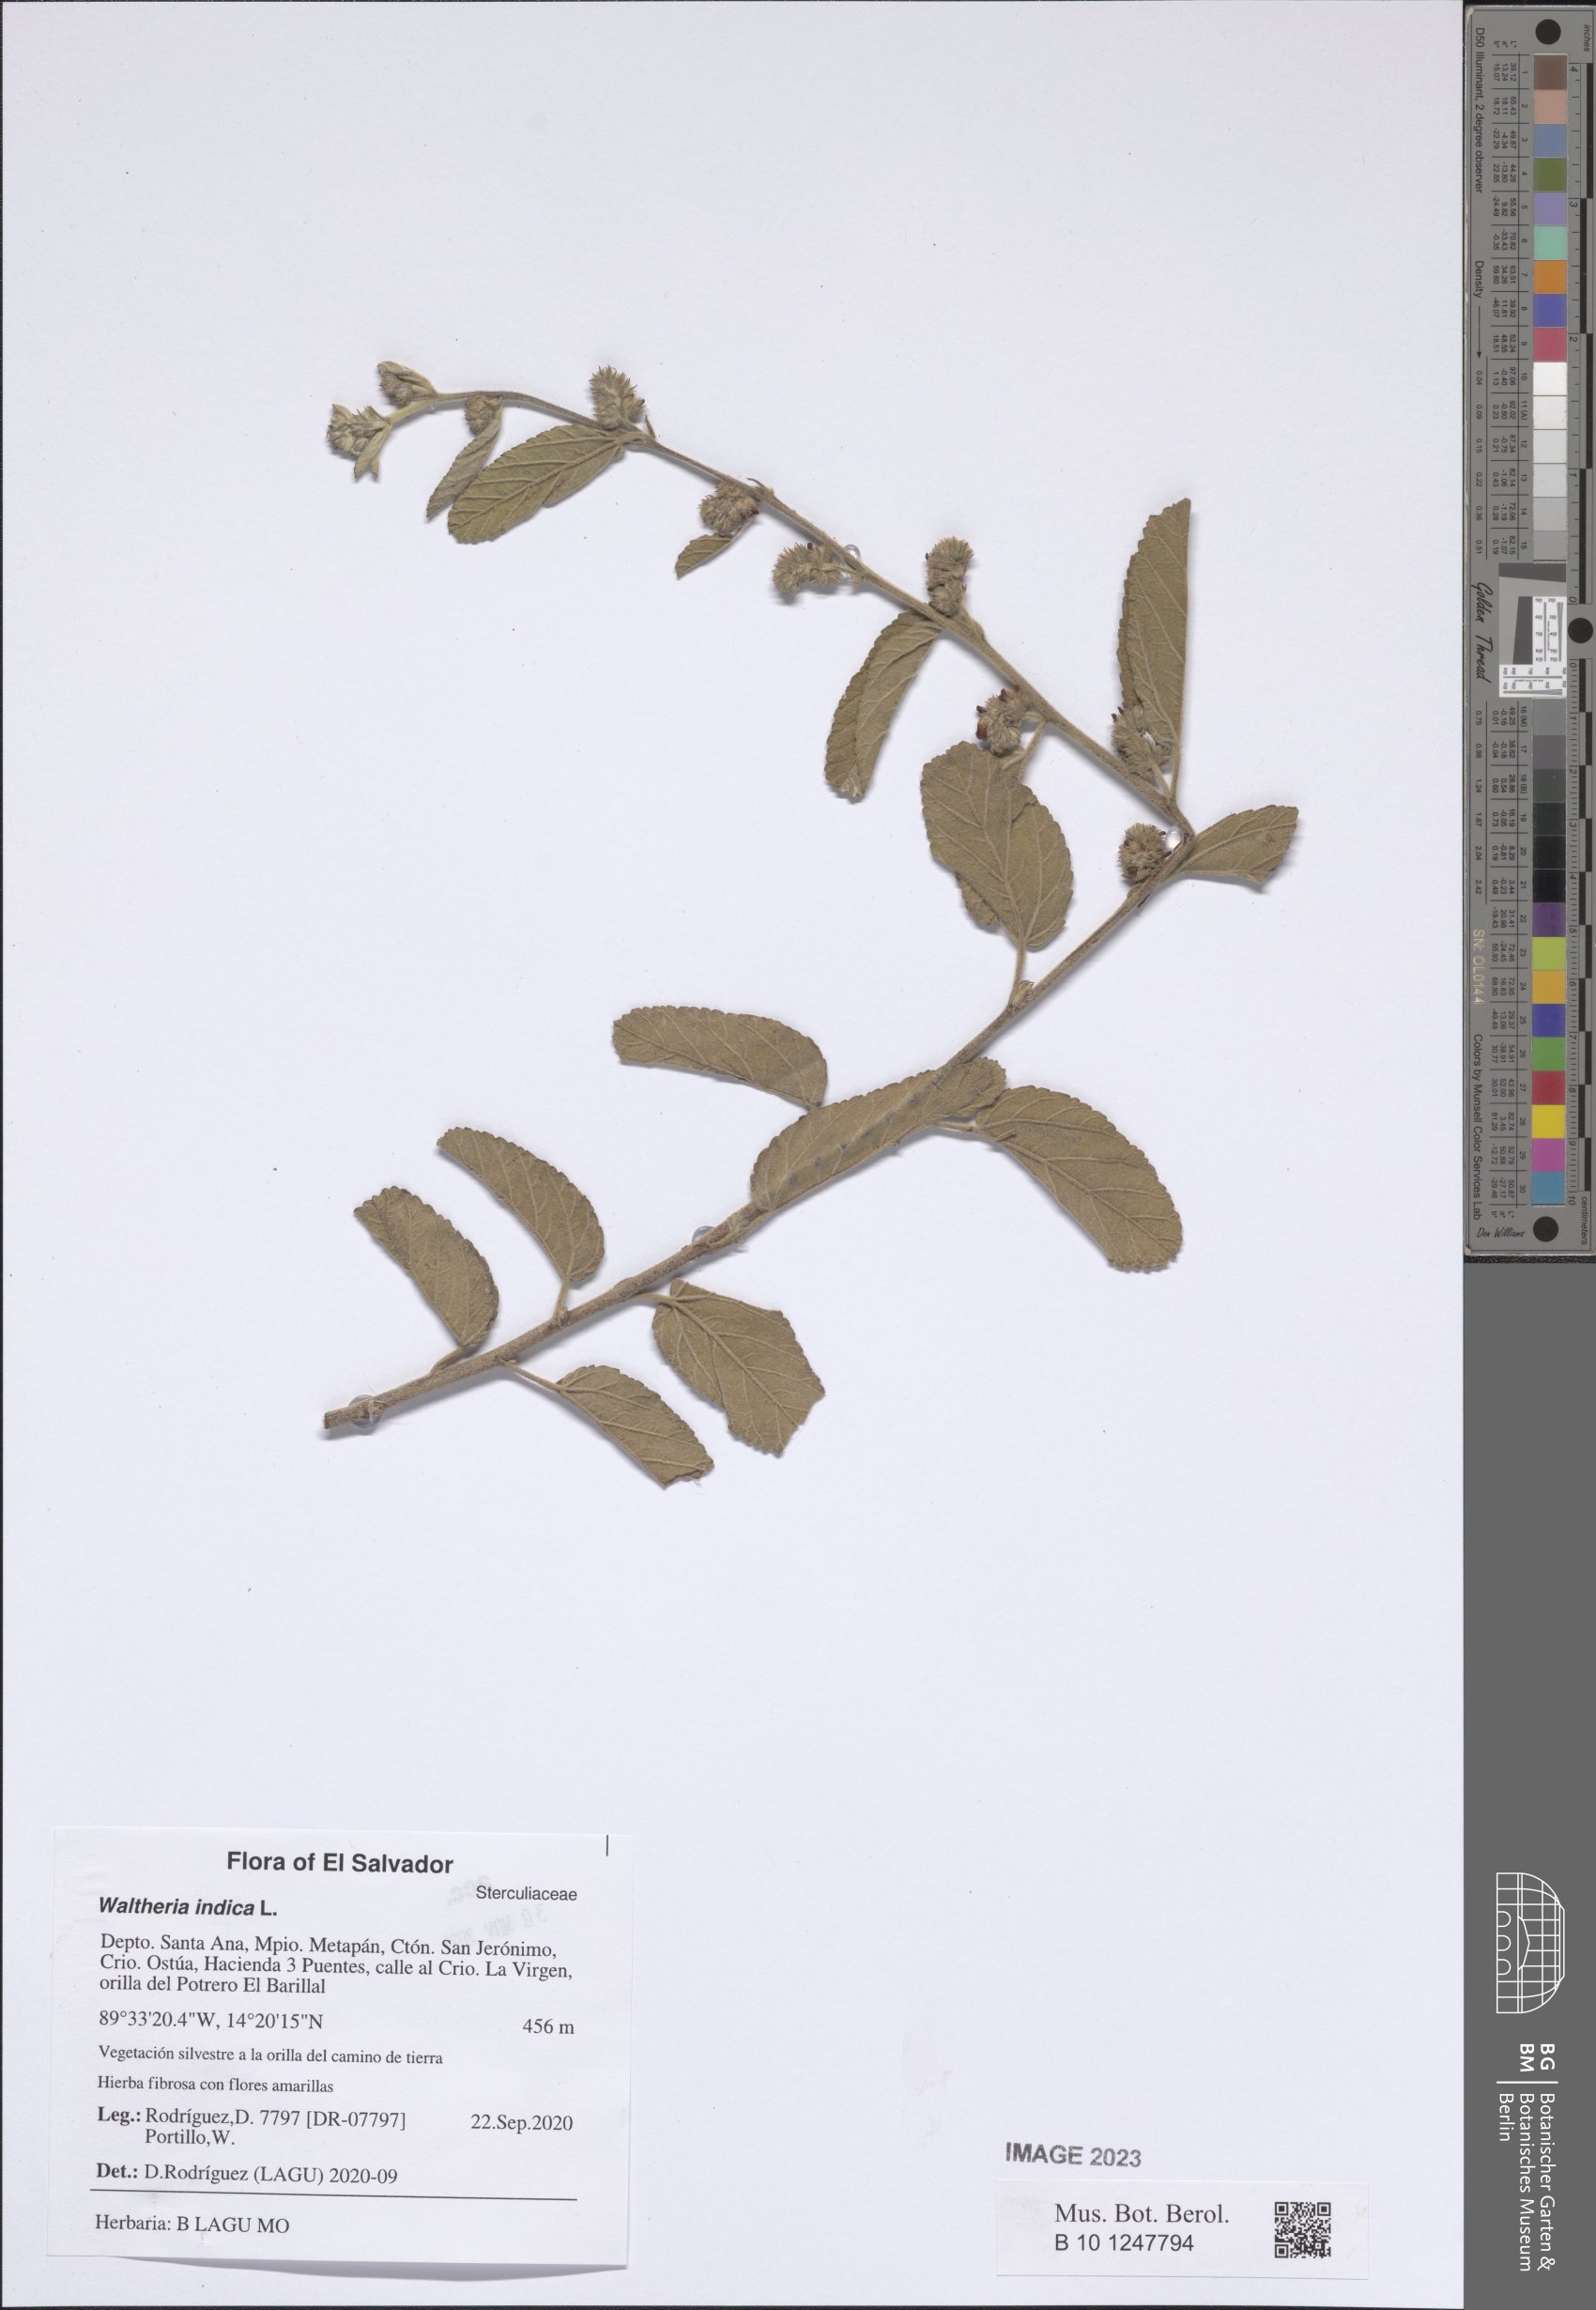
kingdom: Plantae
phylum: Tracheophyta
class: Magnoliopsida
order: Malvales
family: Malvaceae
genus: Waltheria
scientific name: Waltheria indica
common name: Leather-coat
